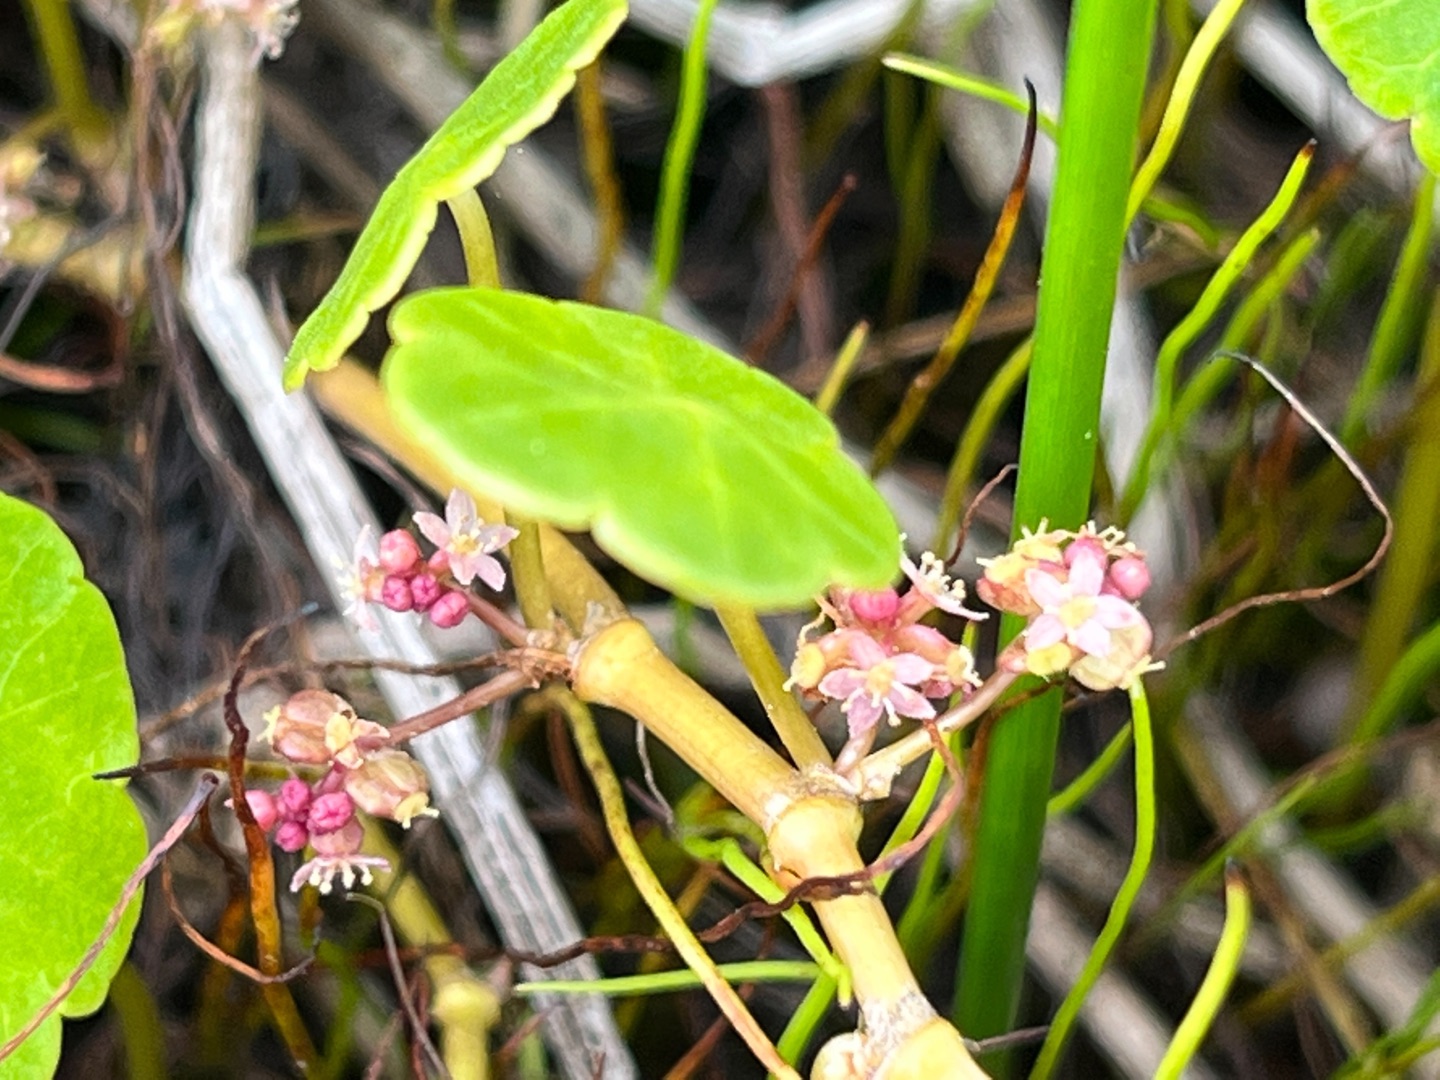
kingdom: Plantae
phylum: Tracheophyta
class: Magnoliopsida
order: Apiales
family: Araliaceae
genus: Hydrocotyle
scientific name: Hydrocotyle vulgaris
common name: Vandnavle
